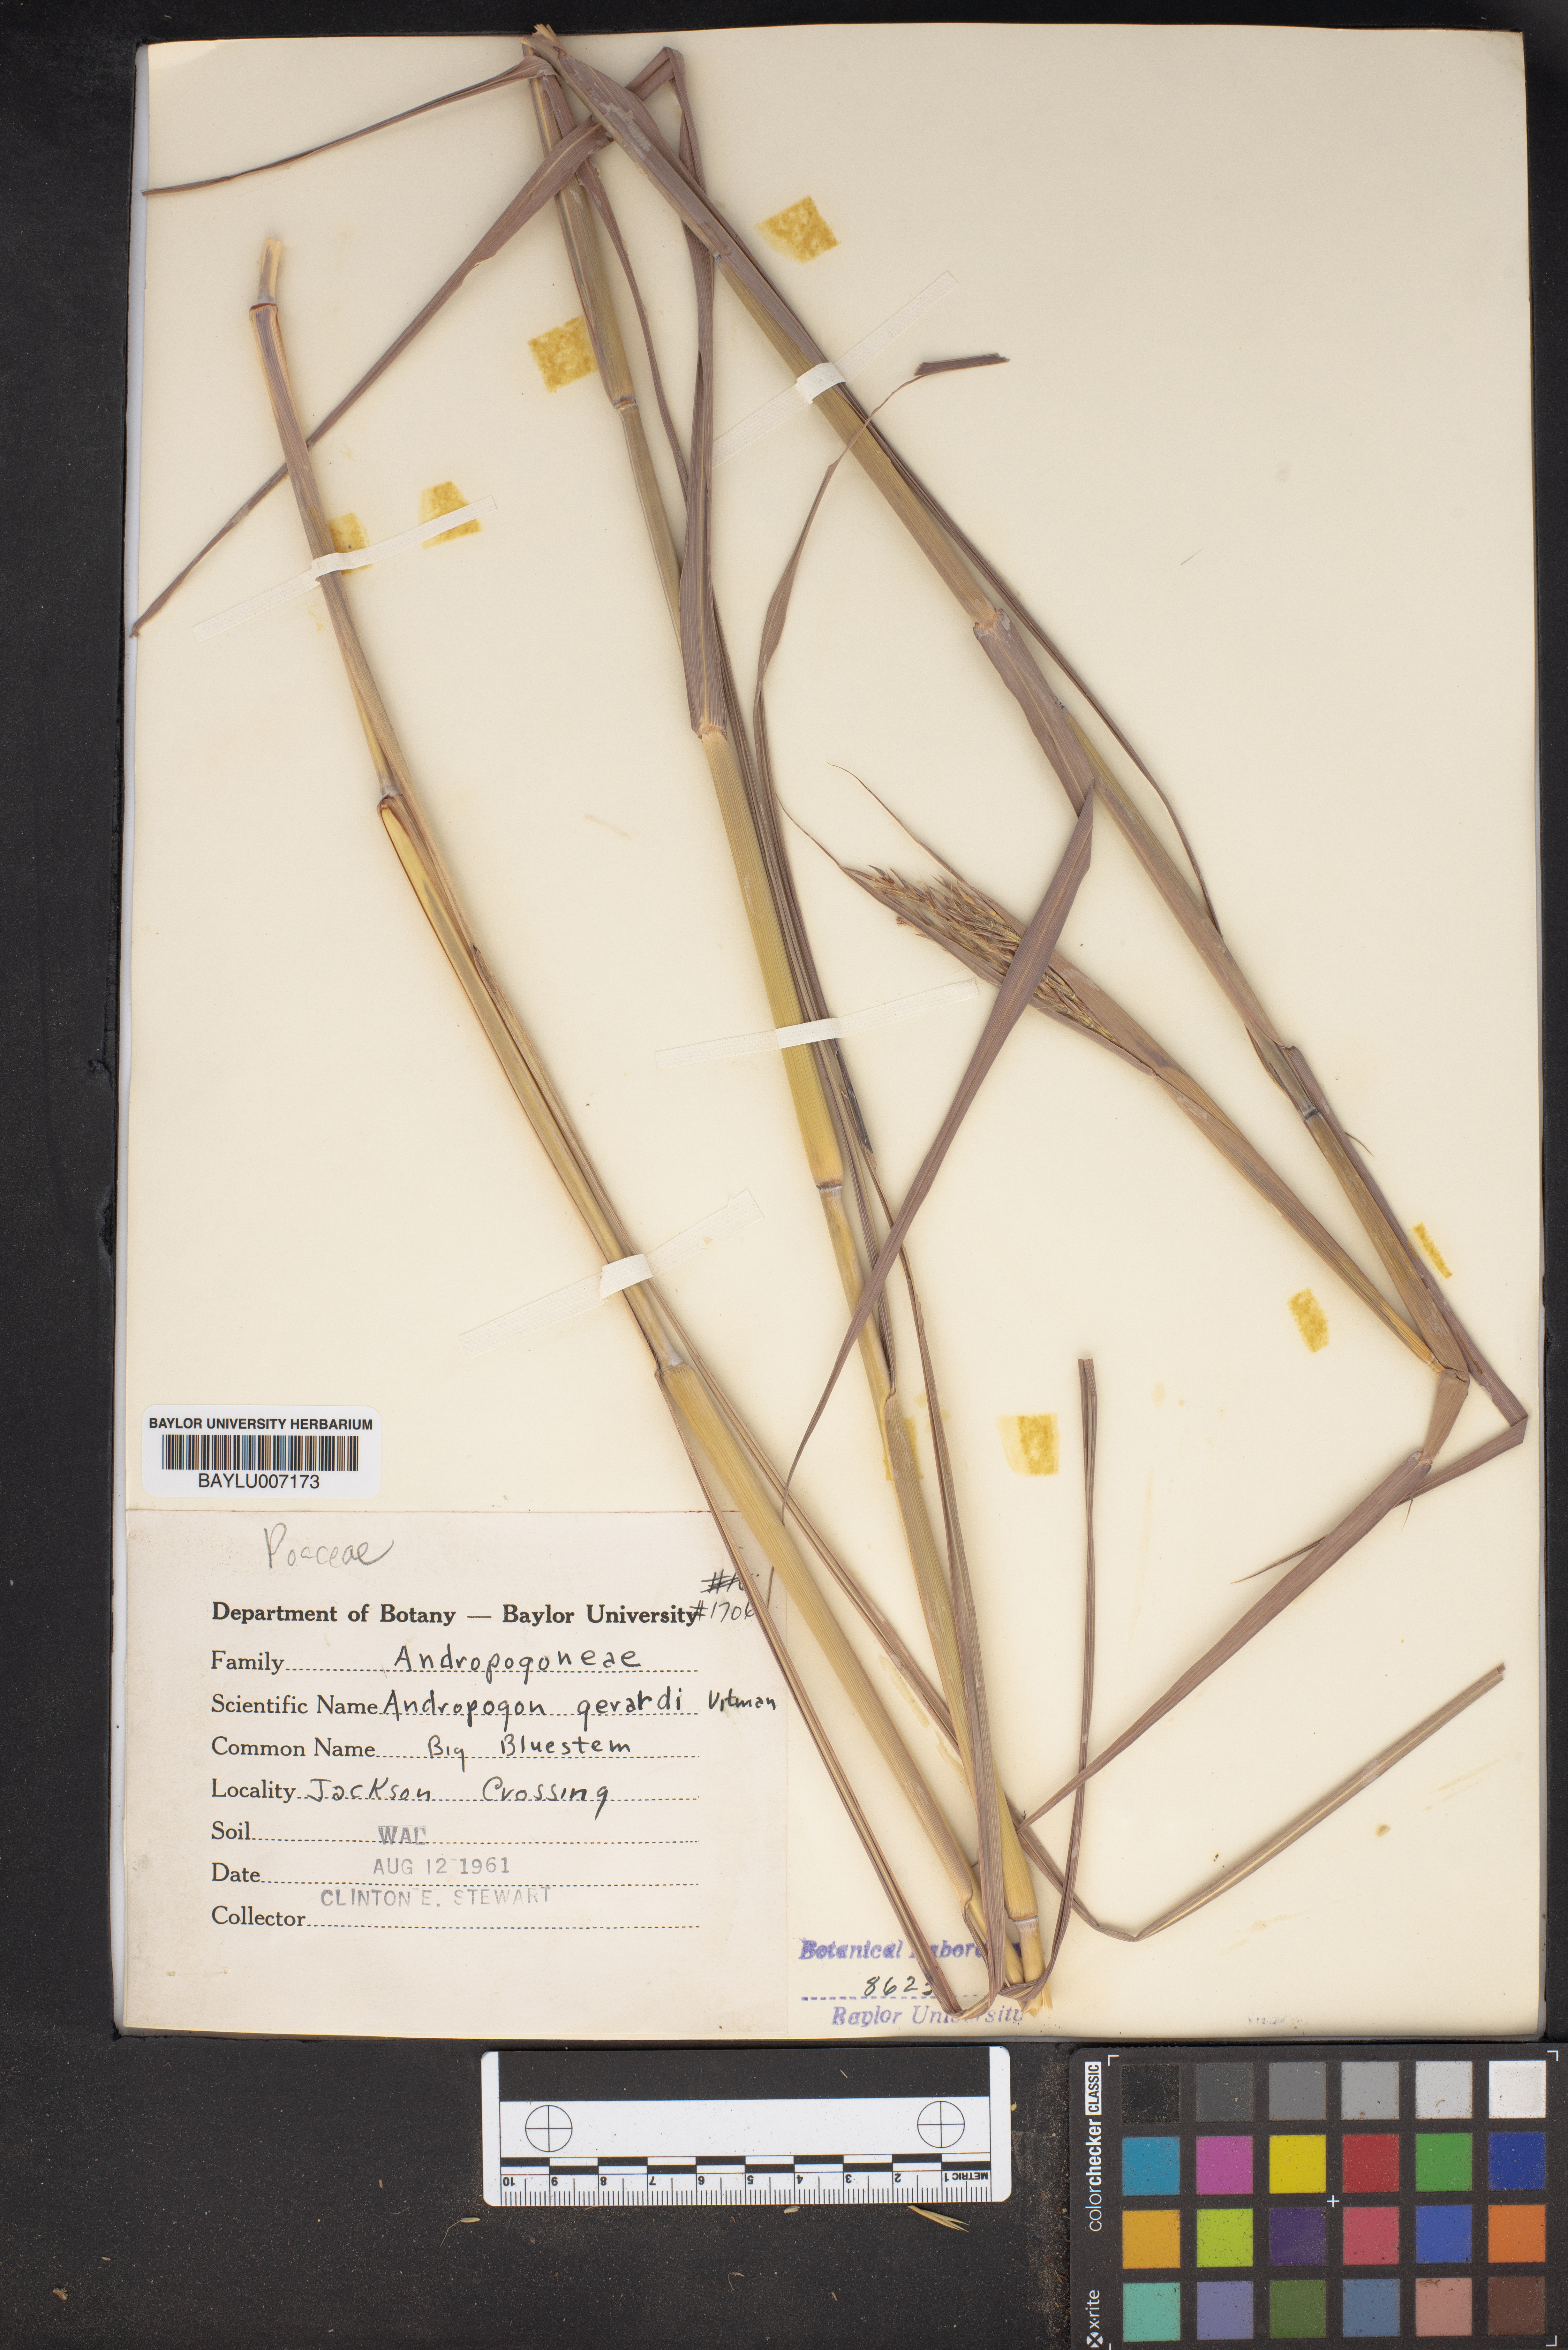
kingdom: Plantae
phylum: Tracheophyta
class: Liliopsida
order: Poales
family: Poaceae
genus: Andropogon
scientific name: Andropogon gerardi
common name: Big bluestem
